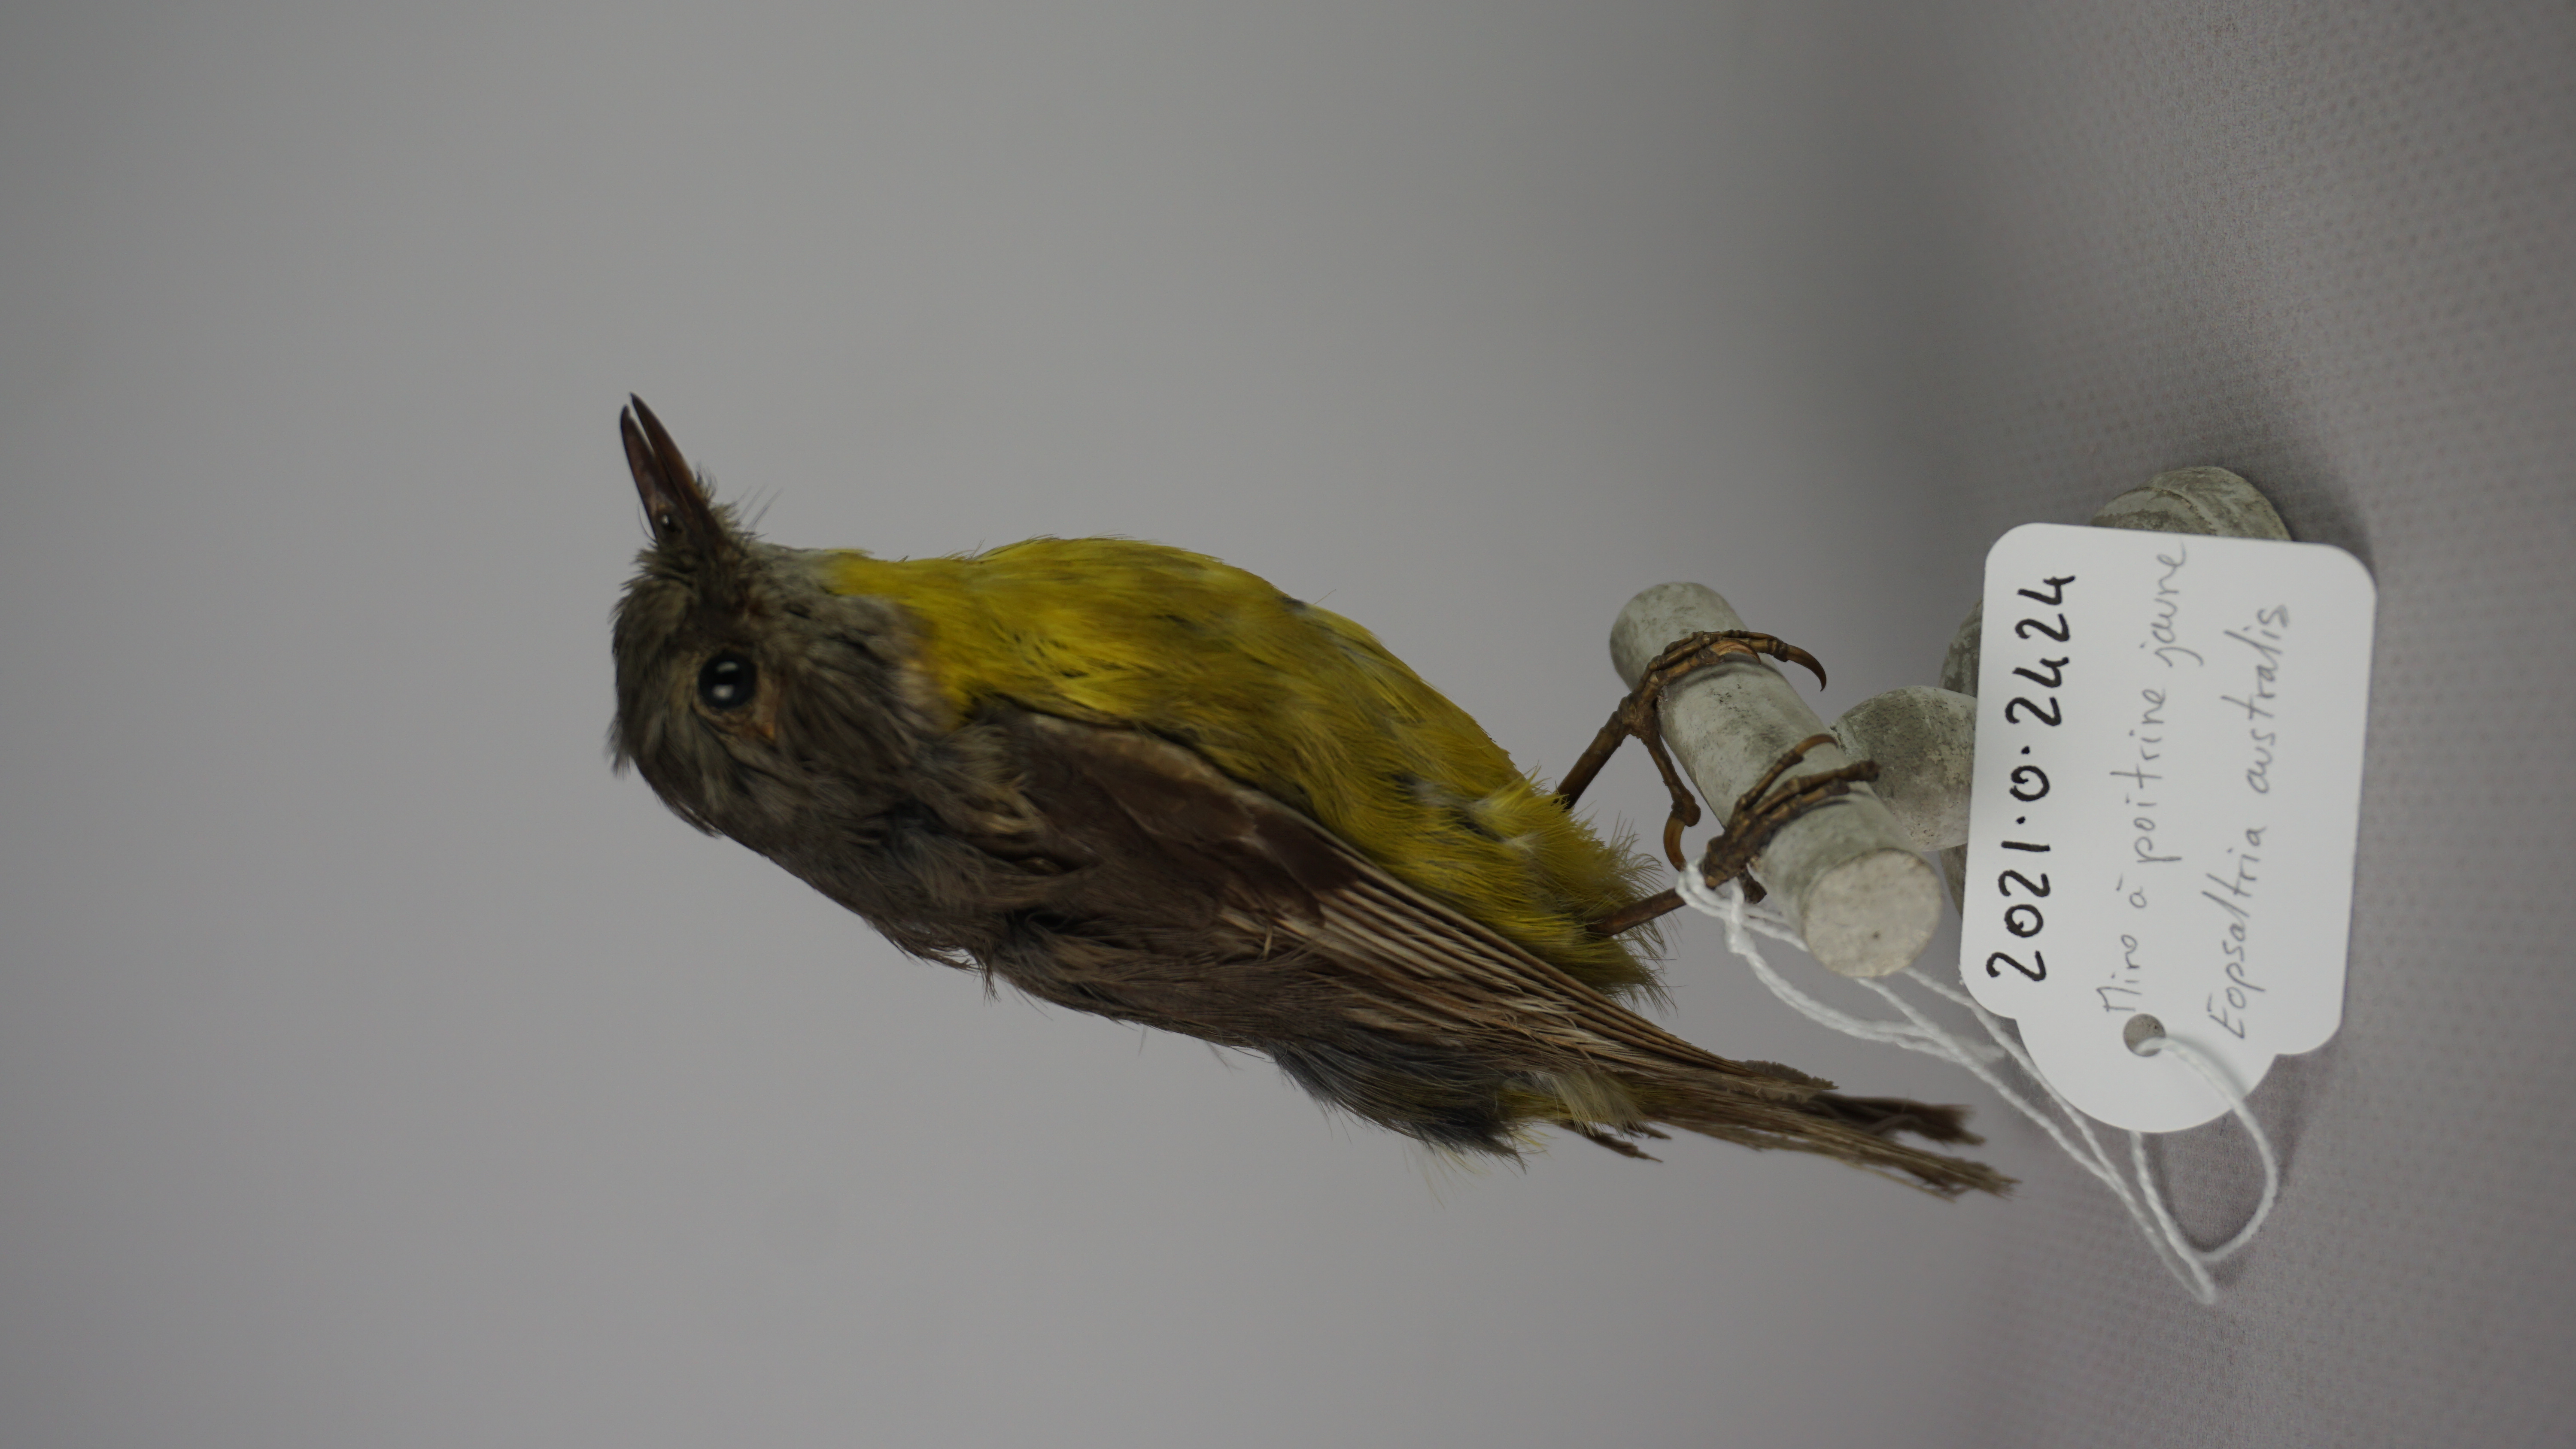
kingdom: Animalia
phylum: Chordata
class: Aves
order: Passeriformes
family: Petroicidae
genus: Eopsaltria
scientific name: Eopsaltria australis
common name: Eastern yellow robin
